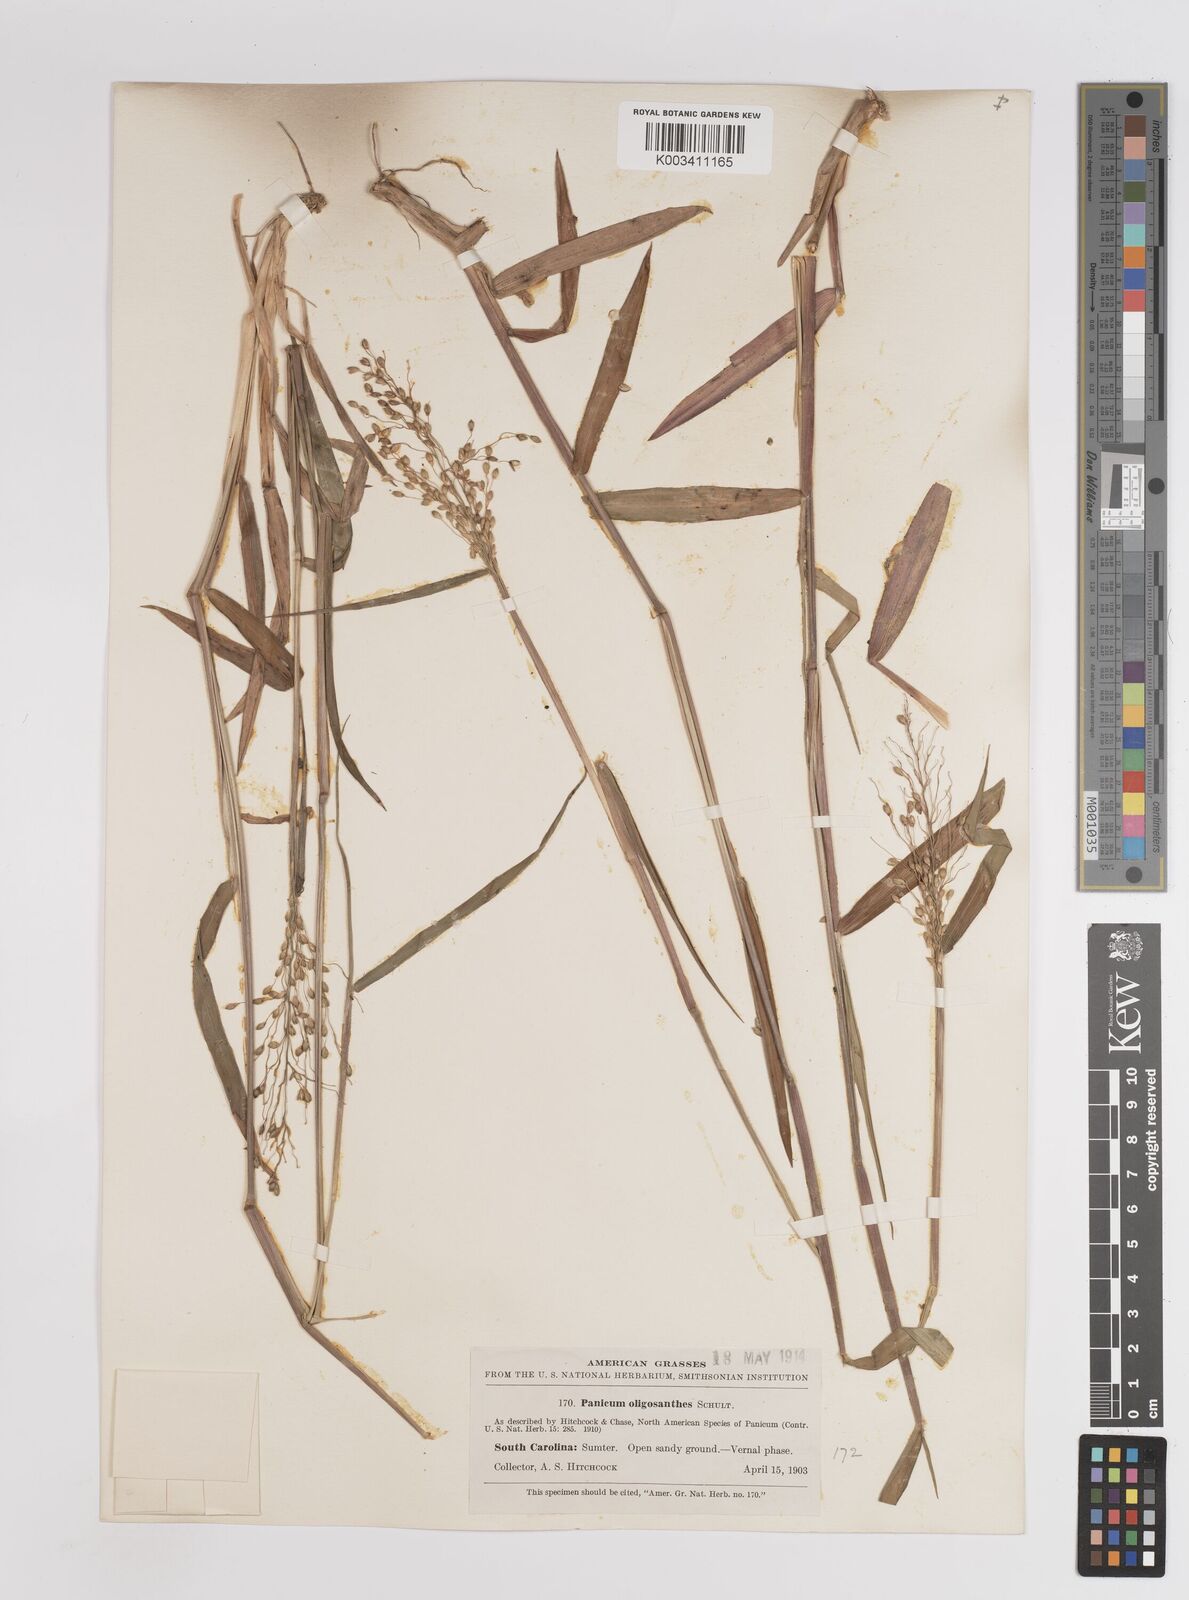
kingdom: Plantae
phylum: Tracheophyta
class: Liliopsida
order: Poales
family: Poaceae
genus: Dichanthelium
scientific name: Dichanthelium oligosanthes
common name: Few-anther obscuregrass
